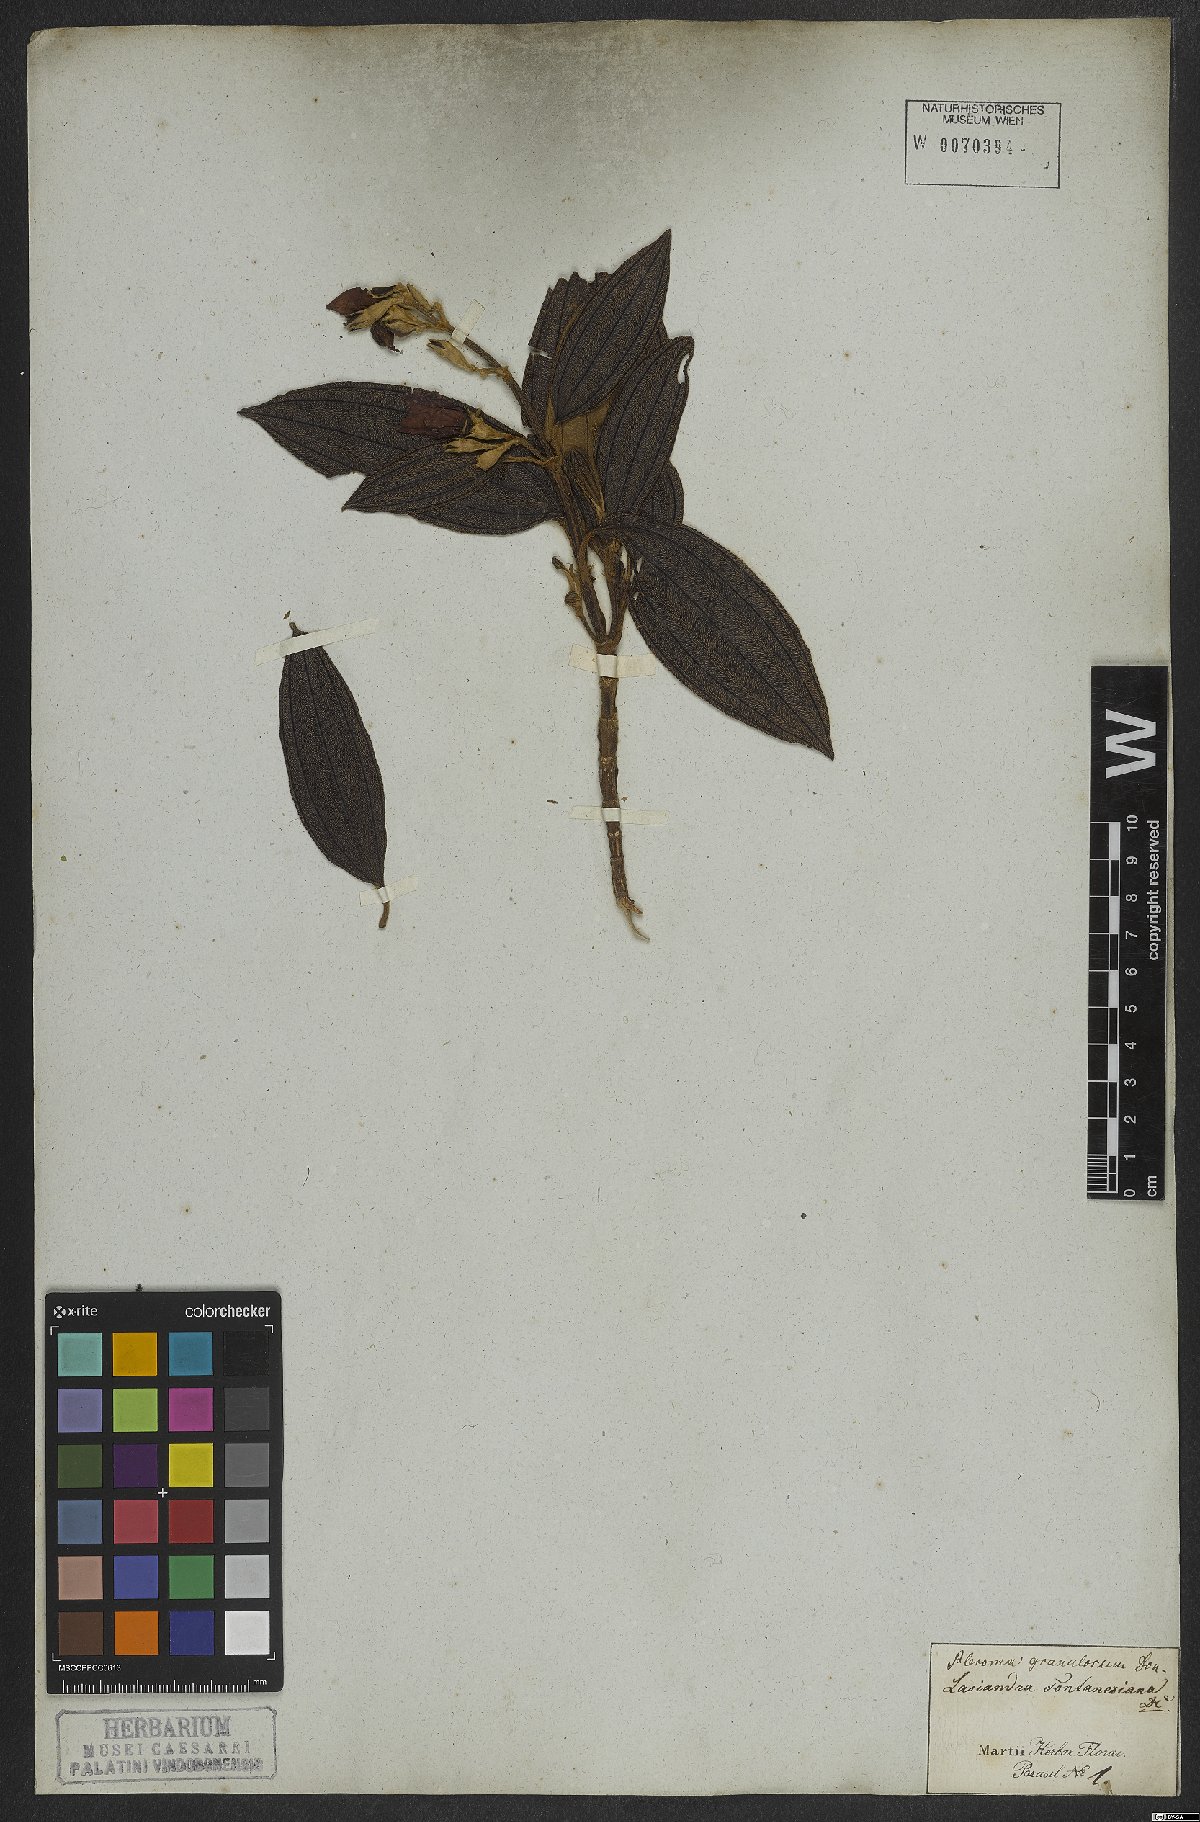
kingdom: Plantae
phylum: Tracheophyta
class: Magnoliopsida
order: Myrtales
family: Melastomataceae
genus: Pleroma
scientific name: Pleroma granulosum
